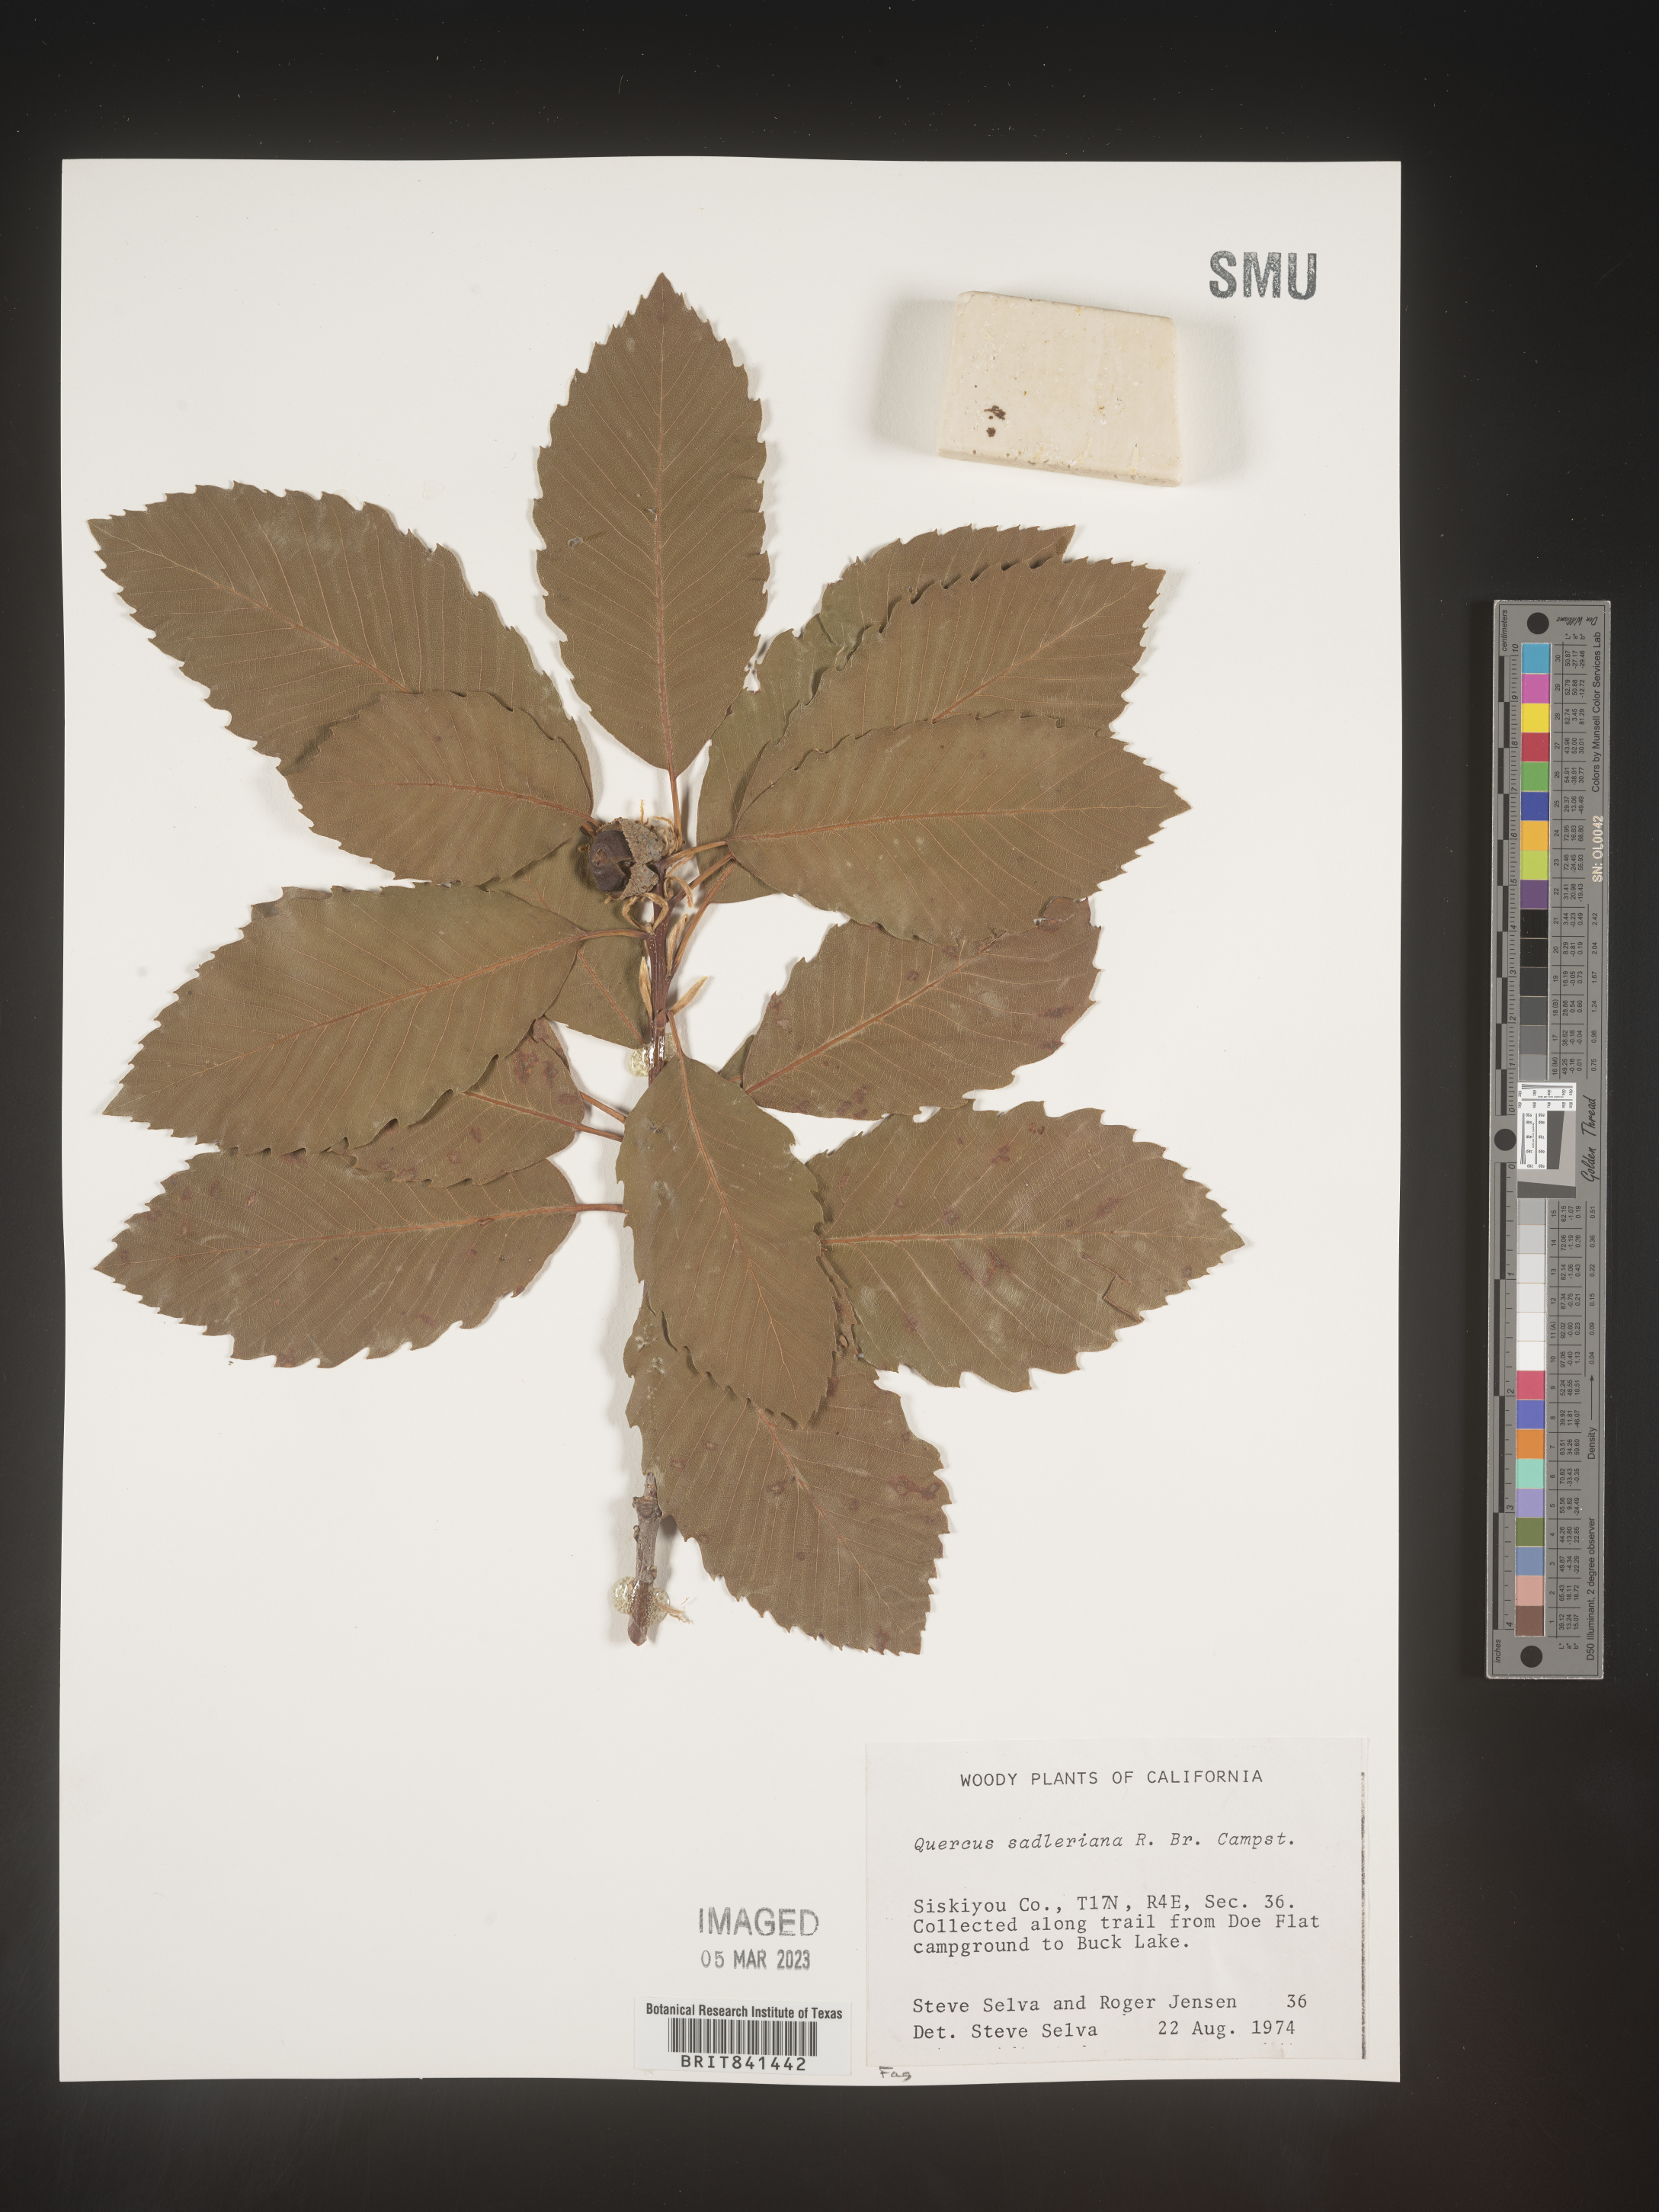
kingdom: Plantae
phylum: Tracheophyta
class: Magnoliopsida
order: Fagales
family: Fagaceae
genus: Quercus
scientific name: Quercus sadleriana
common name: Deer oak
